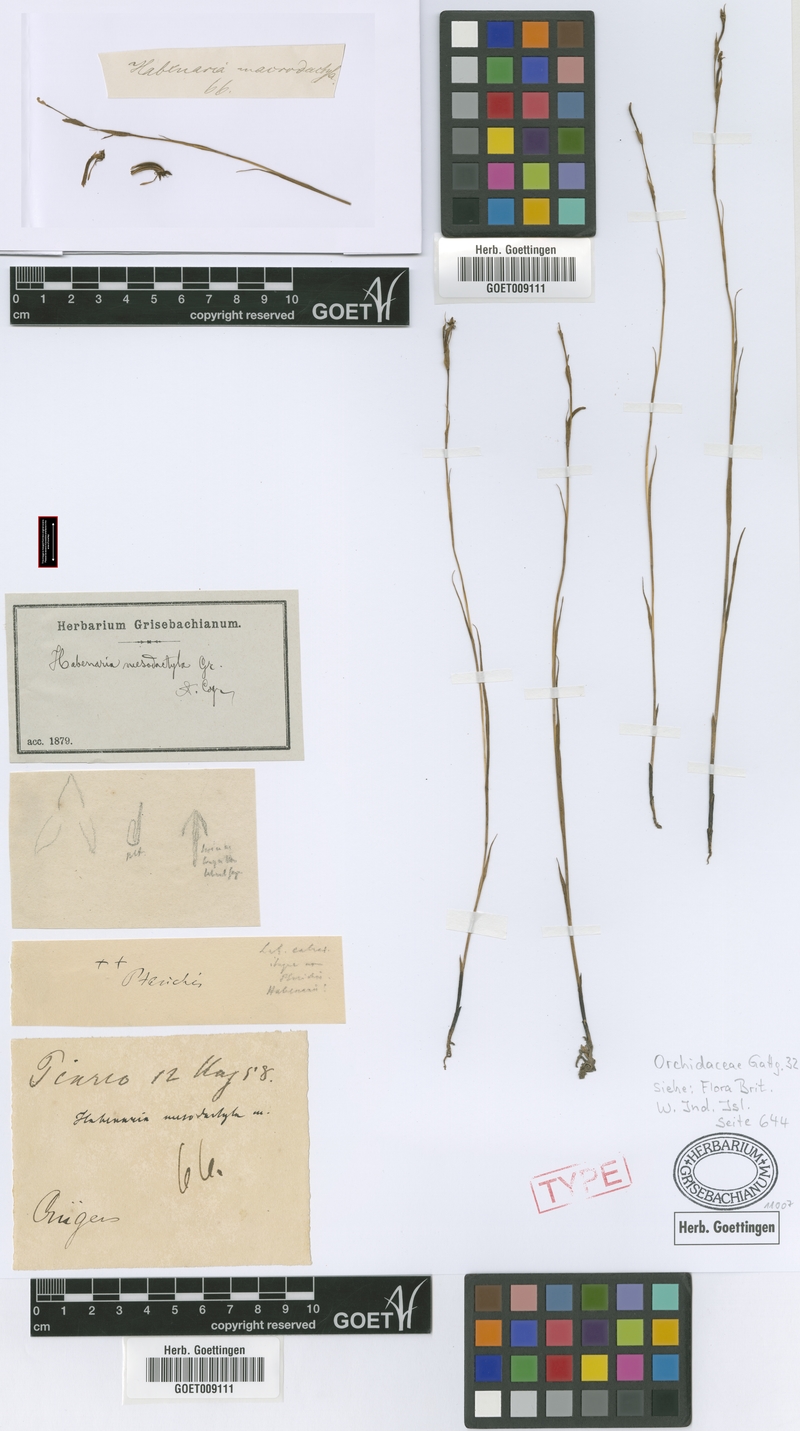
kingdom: Plantae
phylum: Tracheophyta
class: Liliopsida
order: Asparagales
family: Orchidaceae
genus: Habenaria
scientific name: Habenaria mesodactyla
